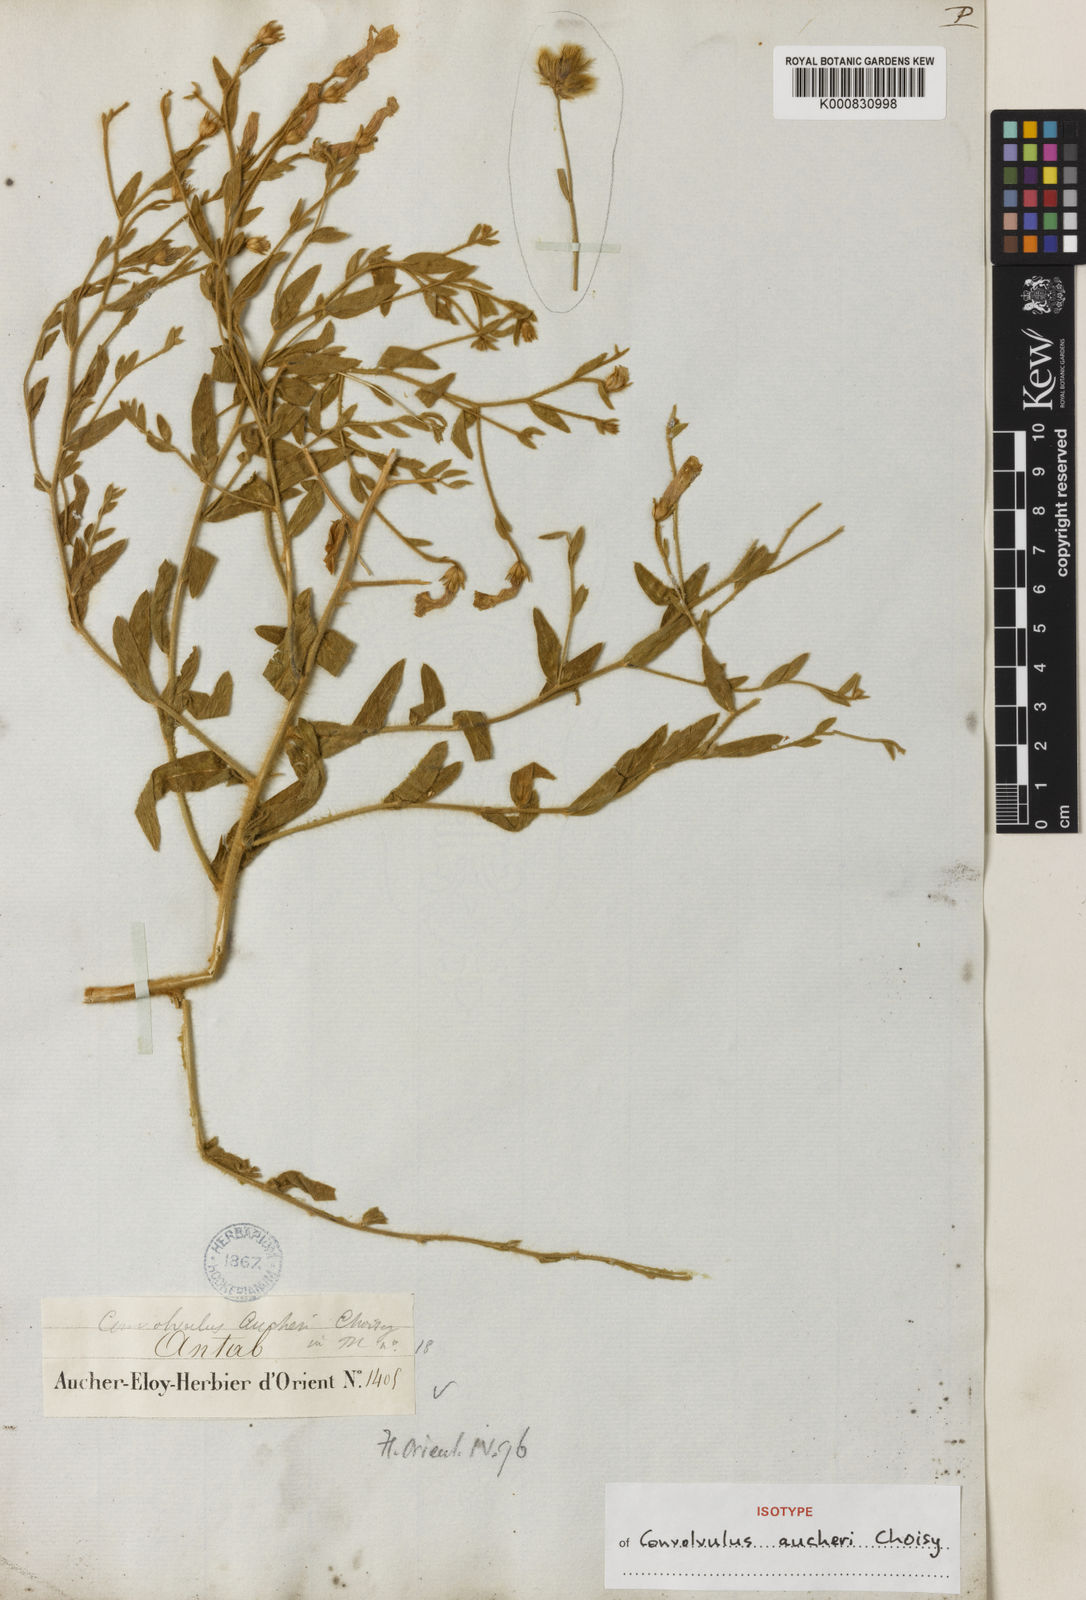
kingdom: Plantae
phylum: Tracheophyta
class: Magnoliopsida
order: Solanales
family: Convolvulaceae
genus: Convolvulus
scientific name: Convolvulus aucheri
